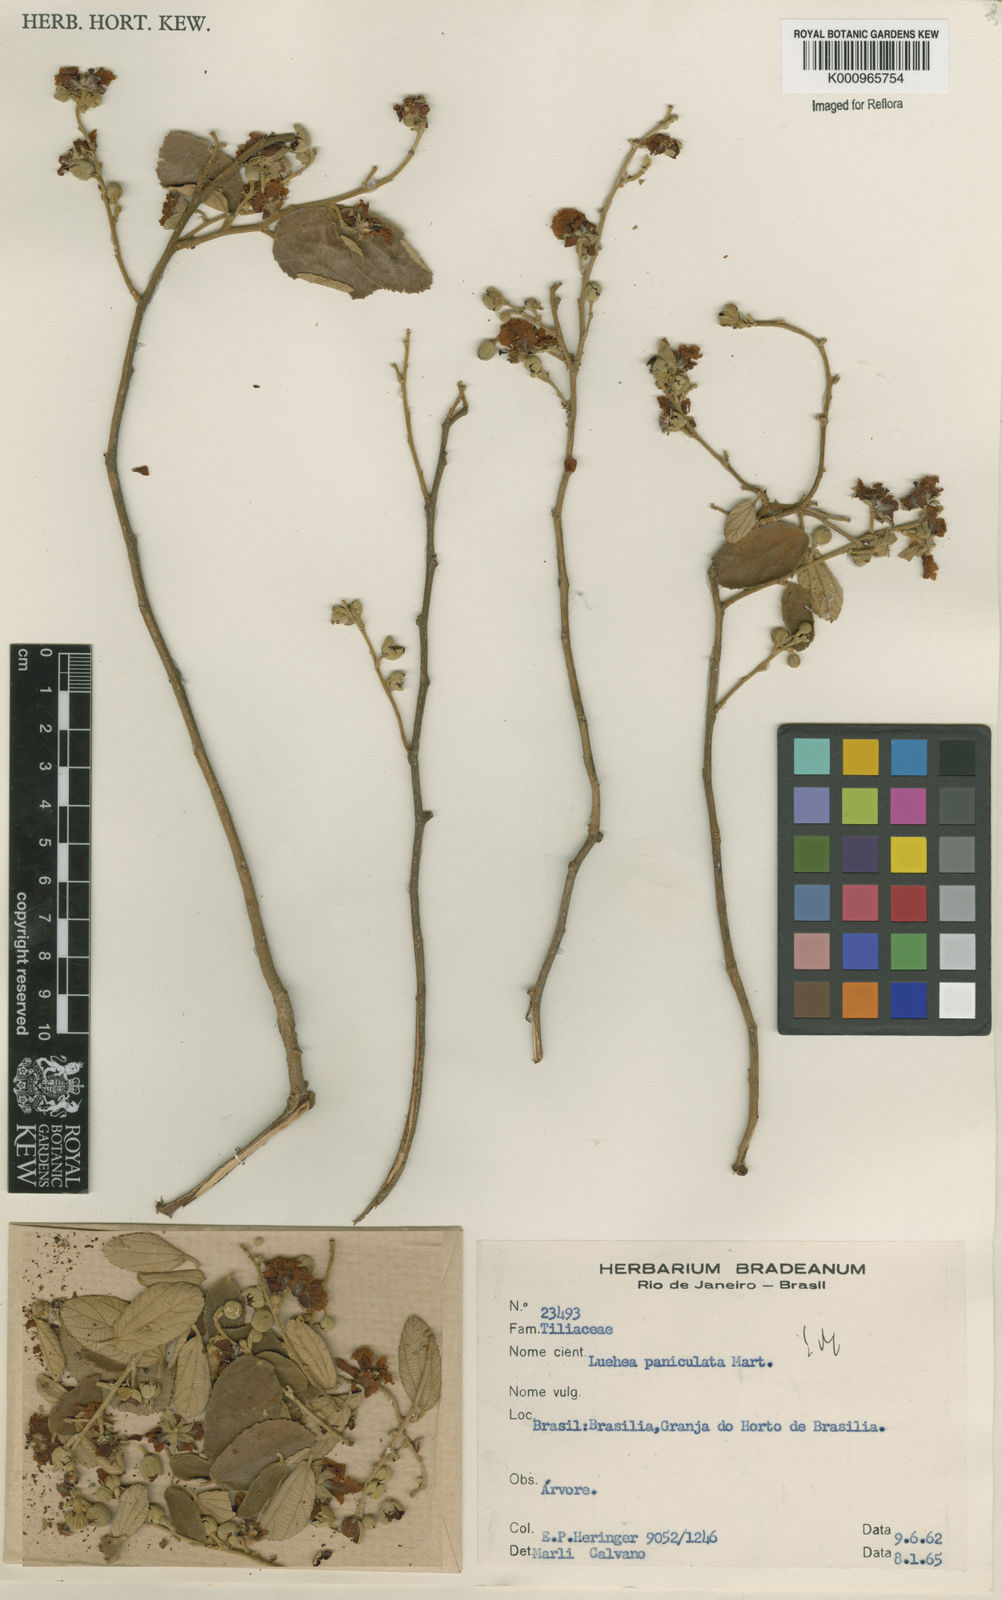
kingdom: Plantae
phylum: Tracheophyta
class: Magnoliopsida
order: Malvales
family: Malvaceae
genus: Luehea
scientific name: Luehea paniculata
